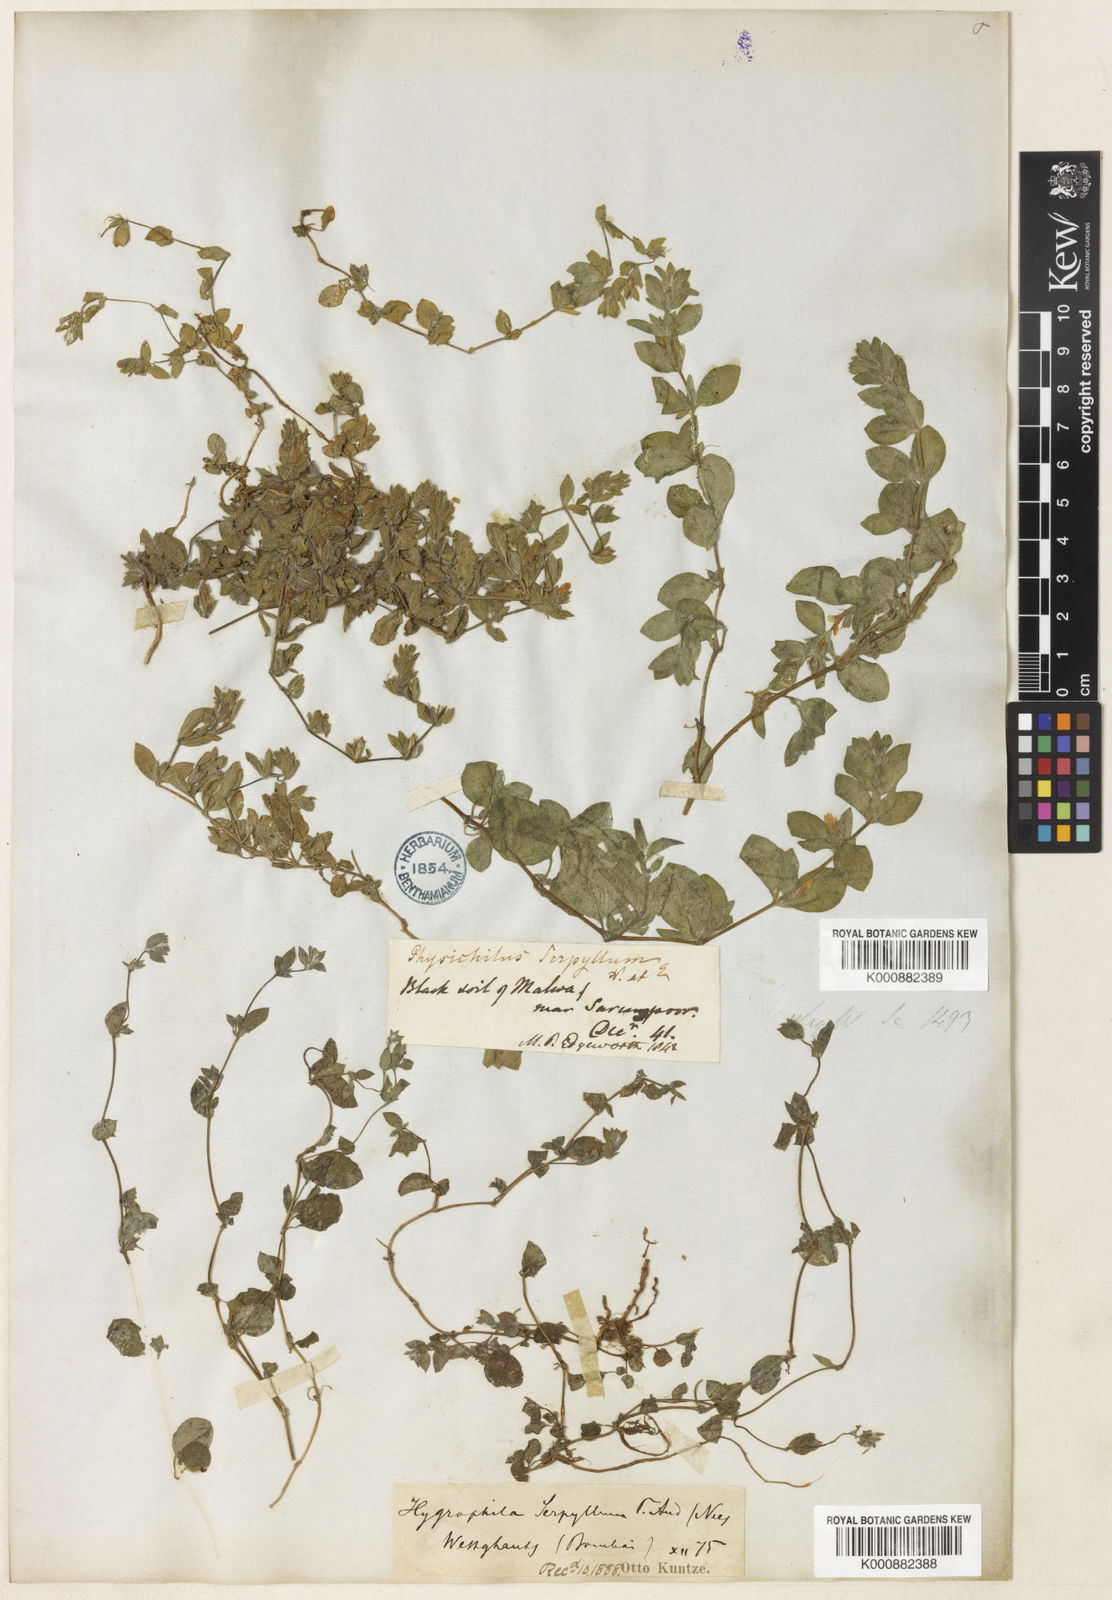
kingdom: Plantae
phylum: Tracheophyta
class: Magnoliopsida
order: Lamiales
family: Acanthaceae
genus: Hygrophila
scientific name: Hygrophila serpyllum
